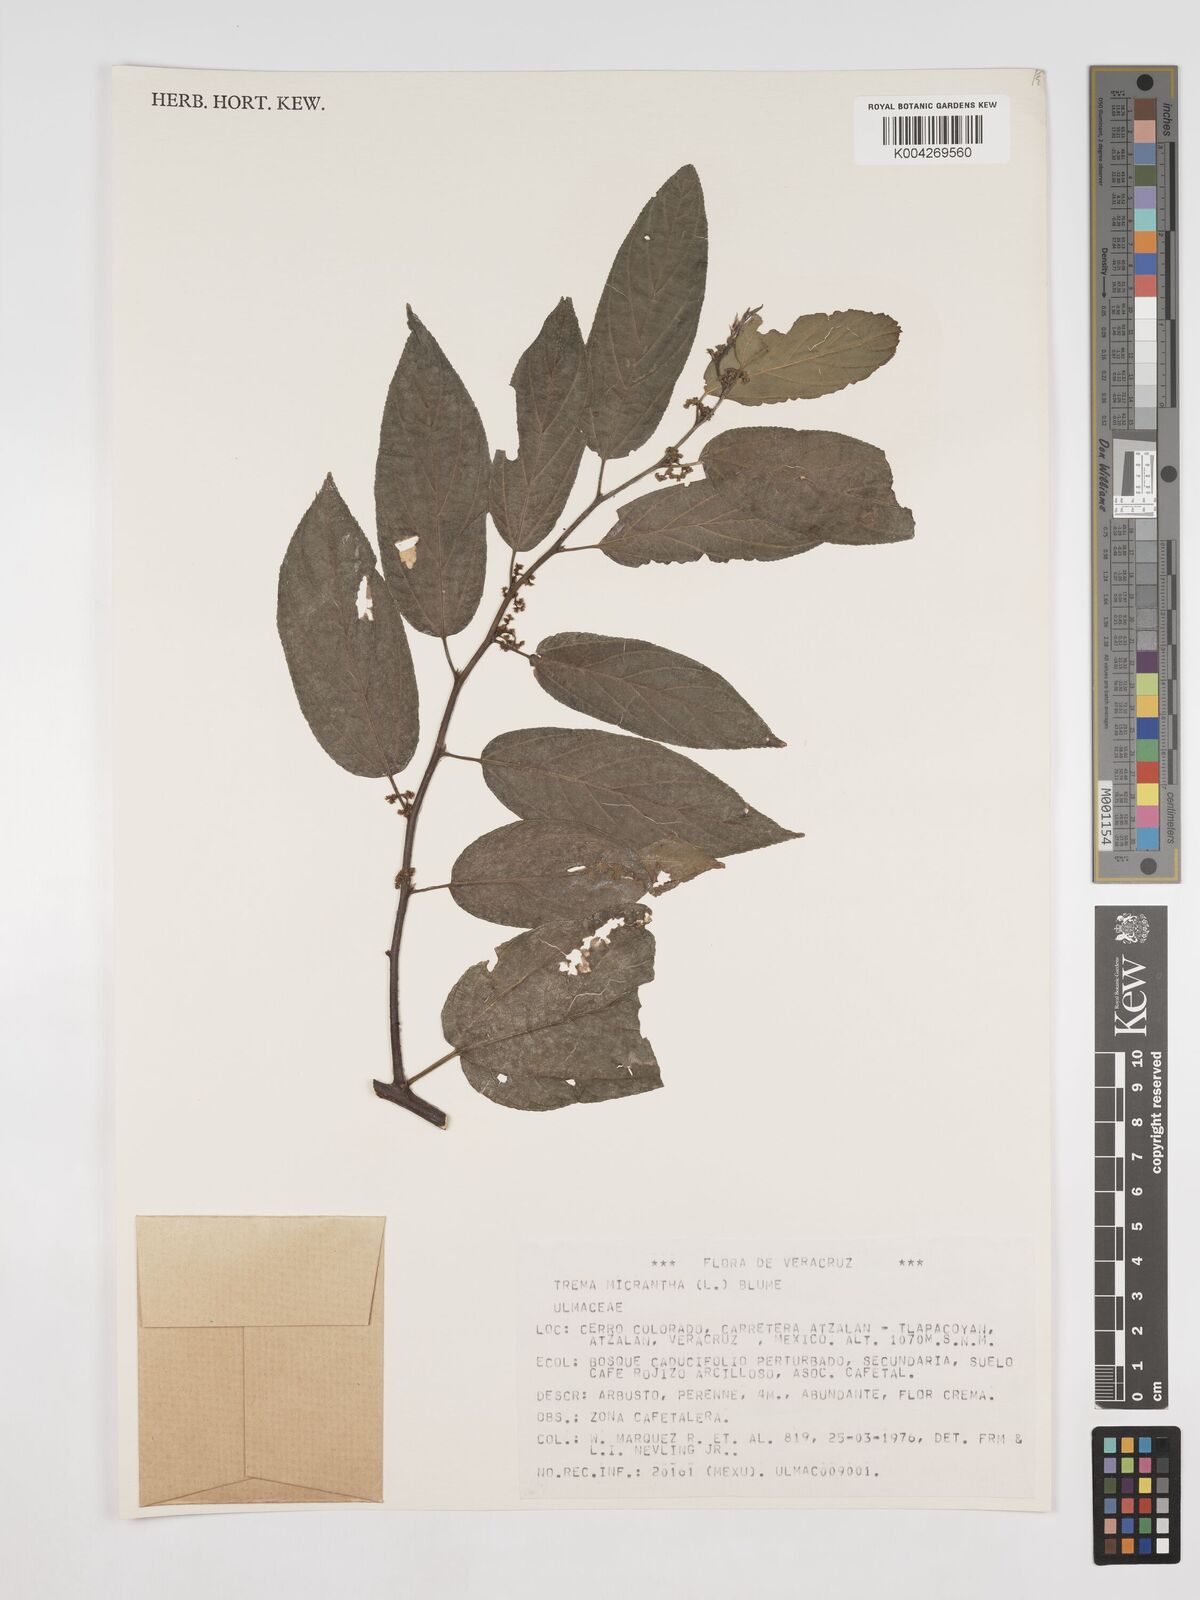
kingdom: Plantae
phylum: Tracheophyta
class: Magnoliopsida
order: Rosales
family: Cannabaceae
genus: Trema
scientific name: Trema micranthum
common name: Jamaican nettletree
